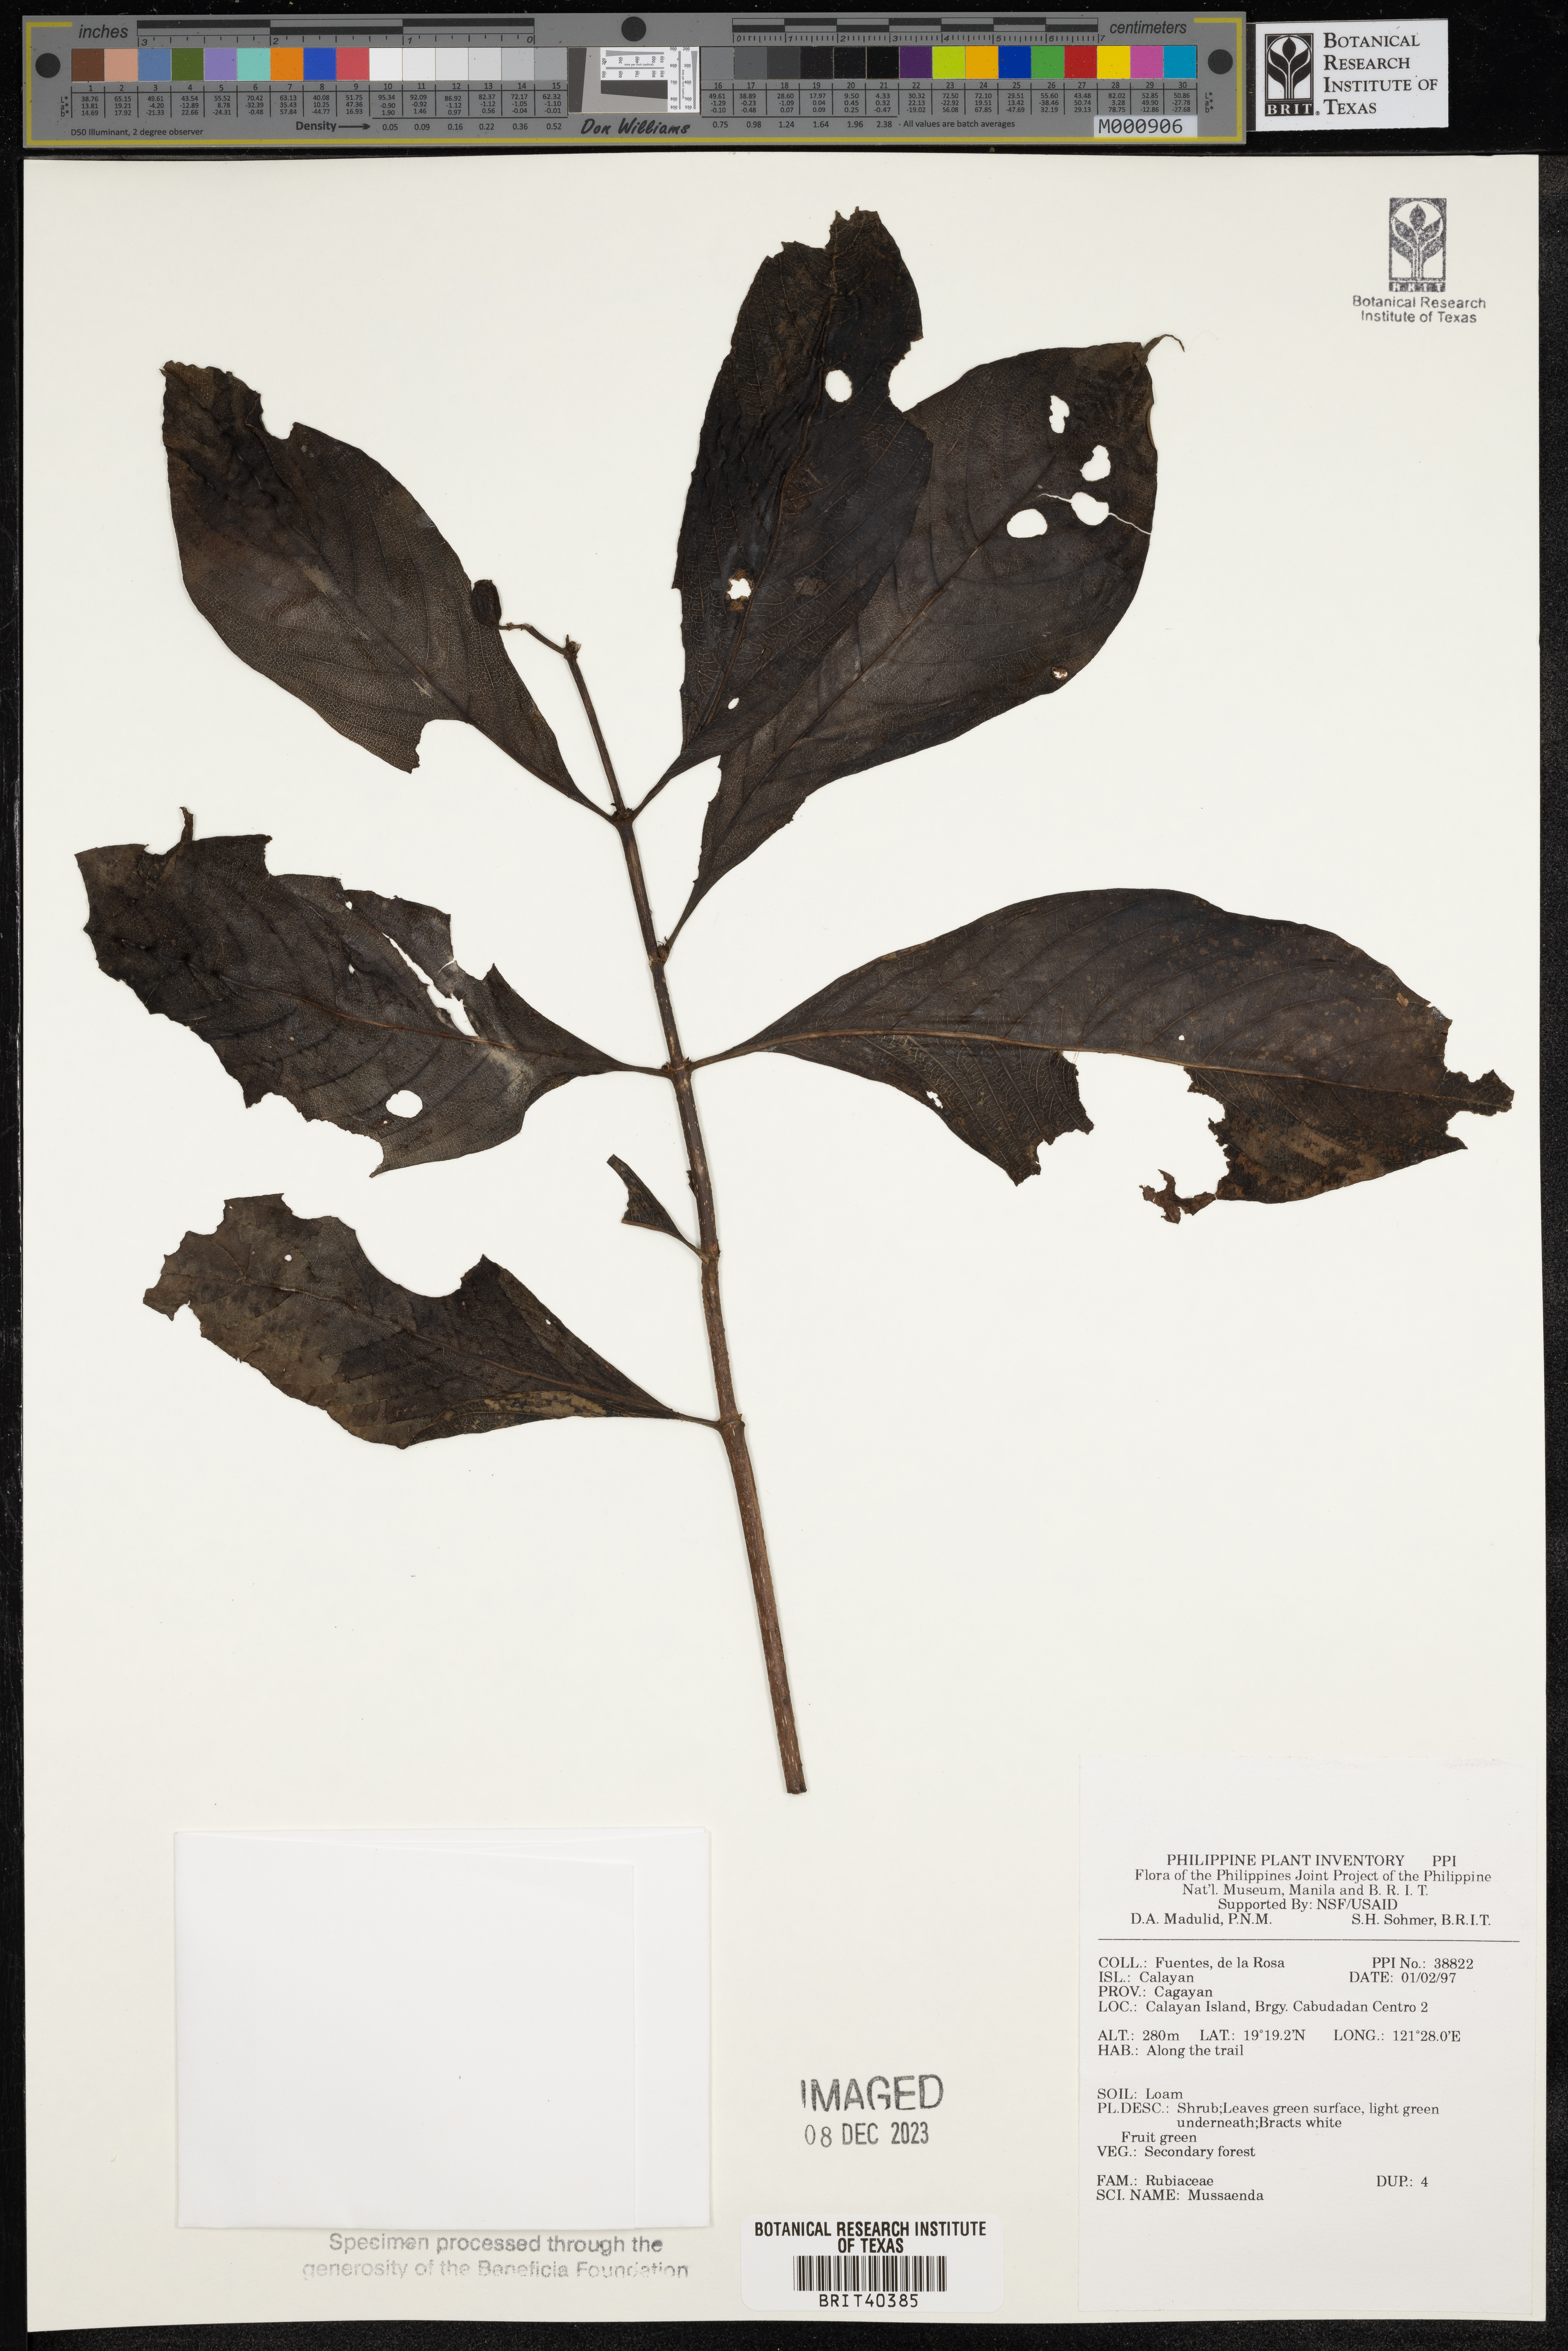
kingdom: Plantae
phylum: Tracheophyta
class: Magnoliopsida
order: Gentianales
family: Rubiaceae
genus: Mussaenda
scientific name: Mussaenda
